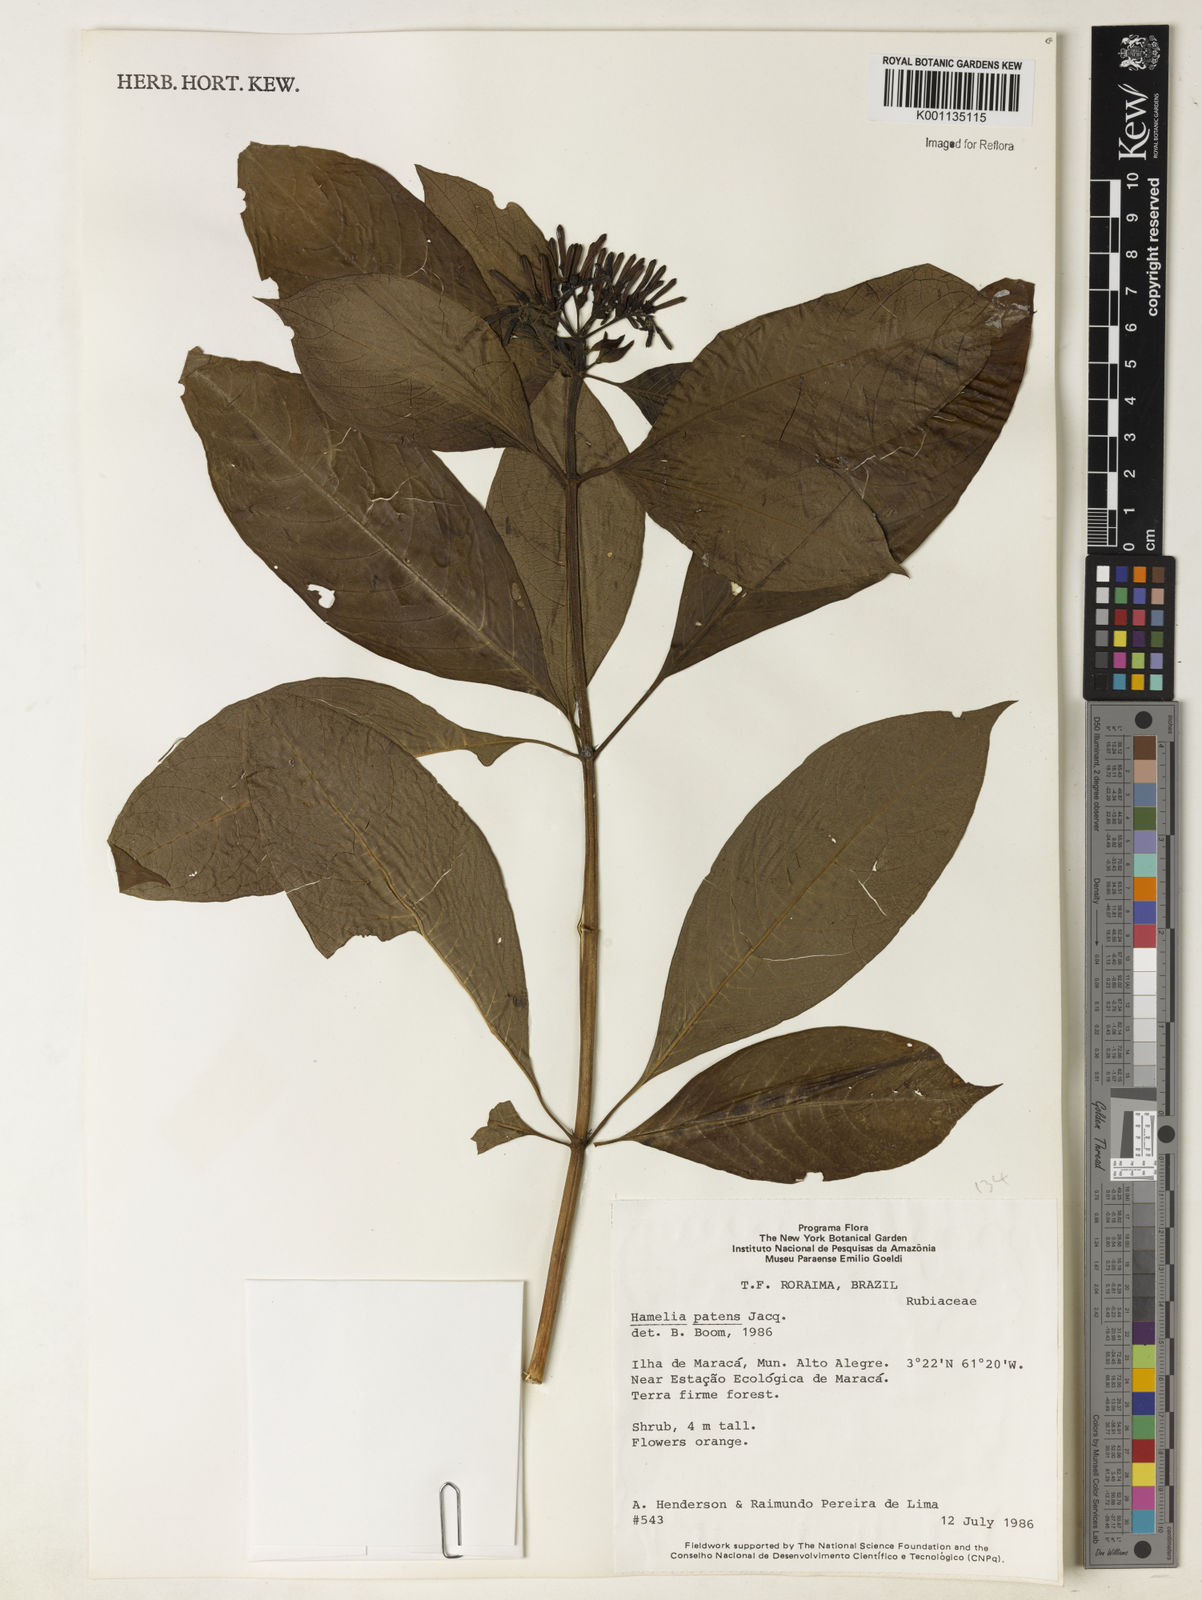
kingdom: Plantae
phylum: Tracheophyta
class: Magnoliopsida
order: Gentianales
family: Rubiaceae
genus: Hamelia
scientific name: Hamelia patens
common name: Redhead
